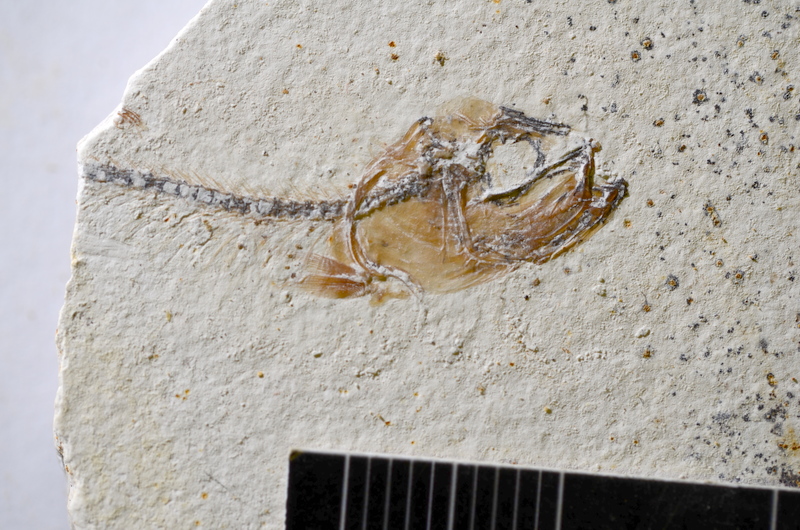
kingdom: Animalia
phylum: Chordata
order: Salmoniformes
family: Orthogonikleithridae
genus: Orthogonikleithrus
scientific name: Orthogonikleithrus hoelli
